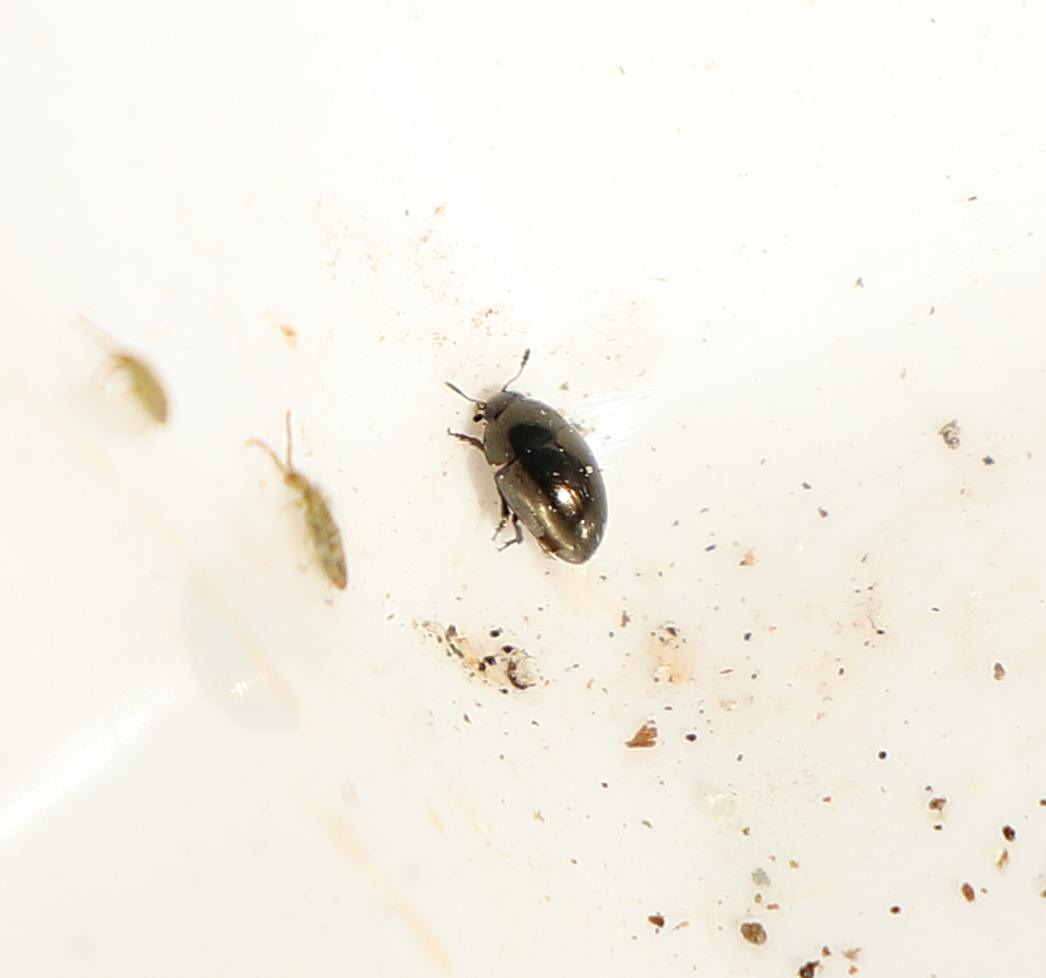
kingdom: Animalia
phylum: Arthropoda
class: Insecta
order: Coleoptera
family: Phalacridae
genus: Olibrus
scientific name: Olibrus aeneus
